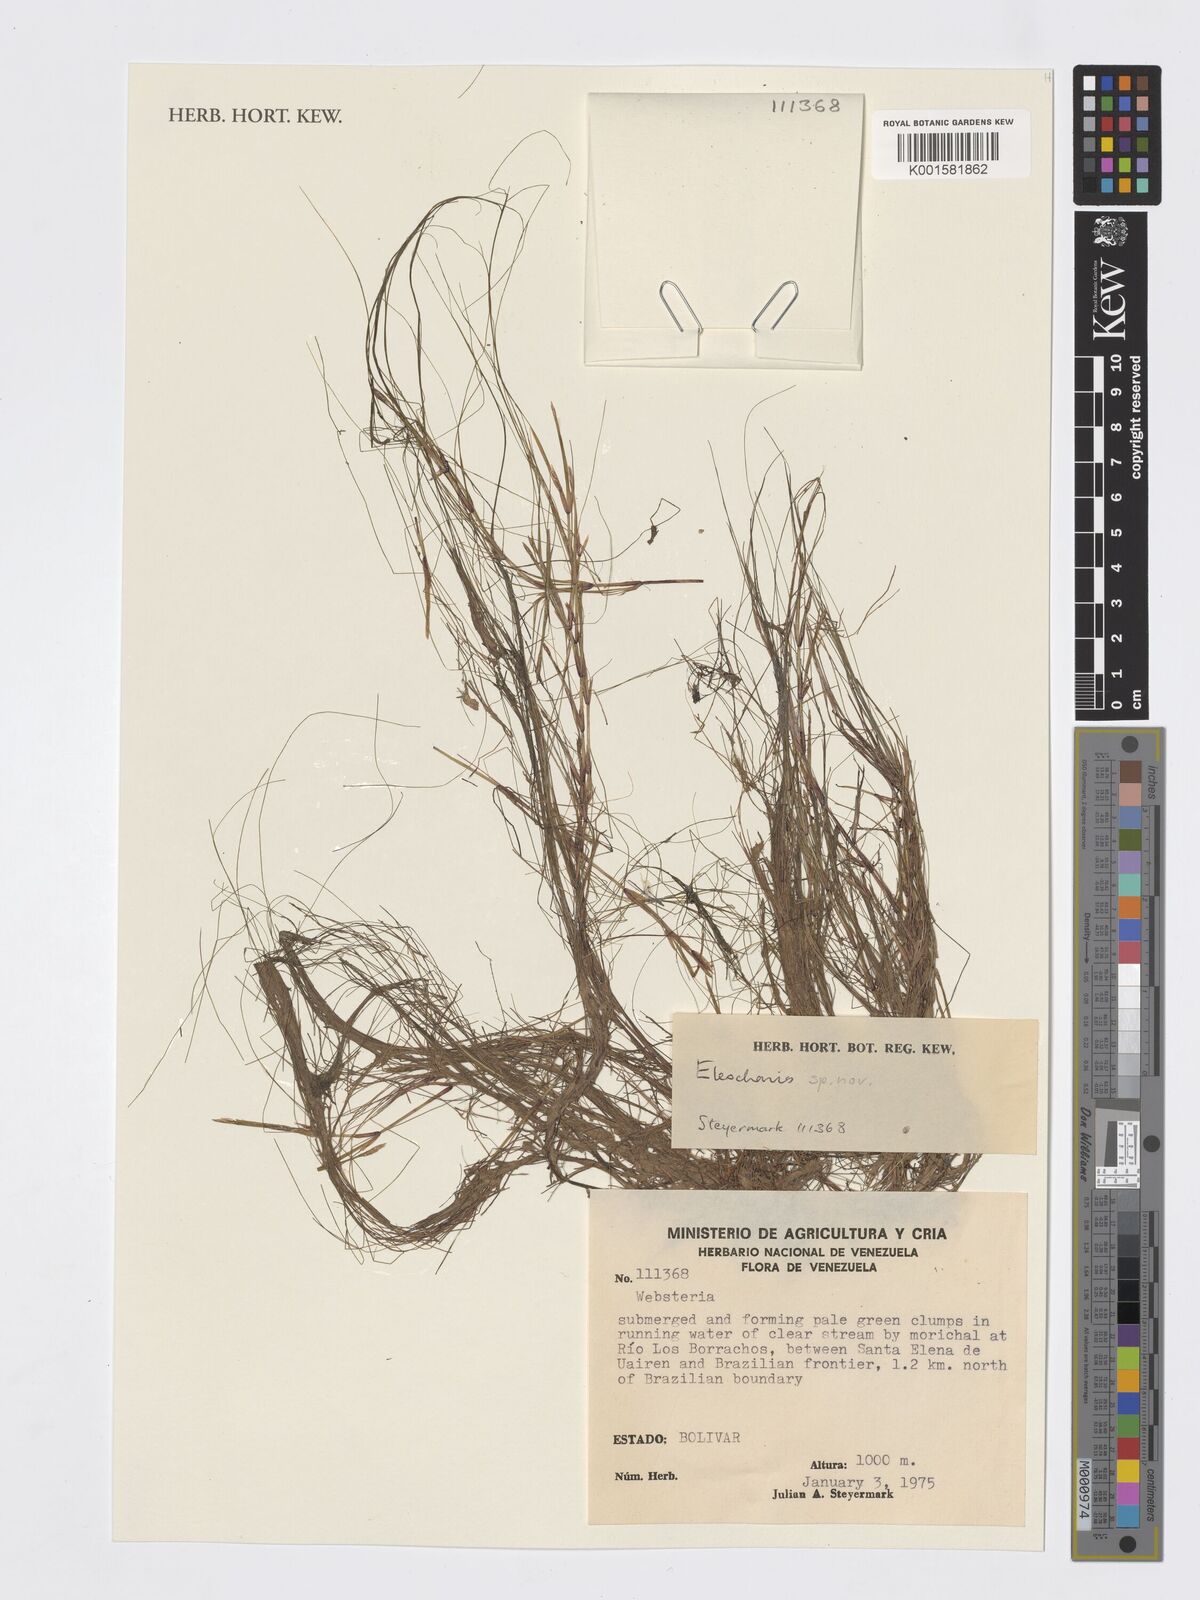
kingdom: Plantae
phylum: Tracheophyta
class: Liliopsida
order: Poales
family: Cyperaceae
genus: Eleocharis
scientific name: Eleocharis
